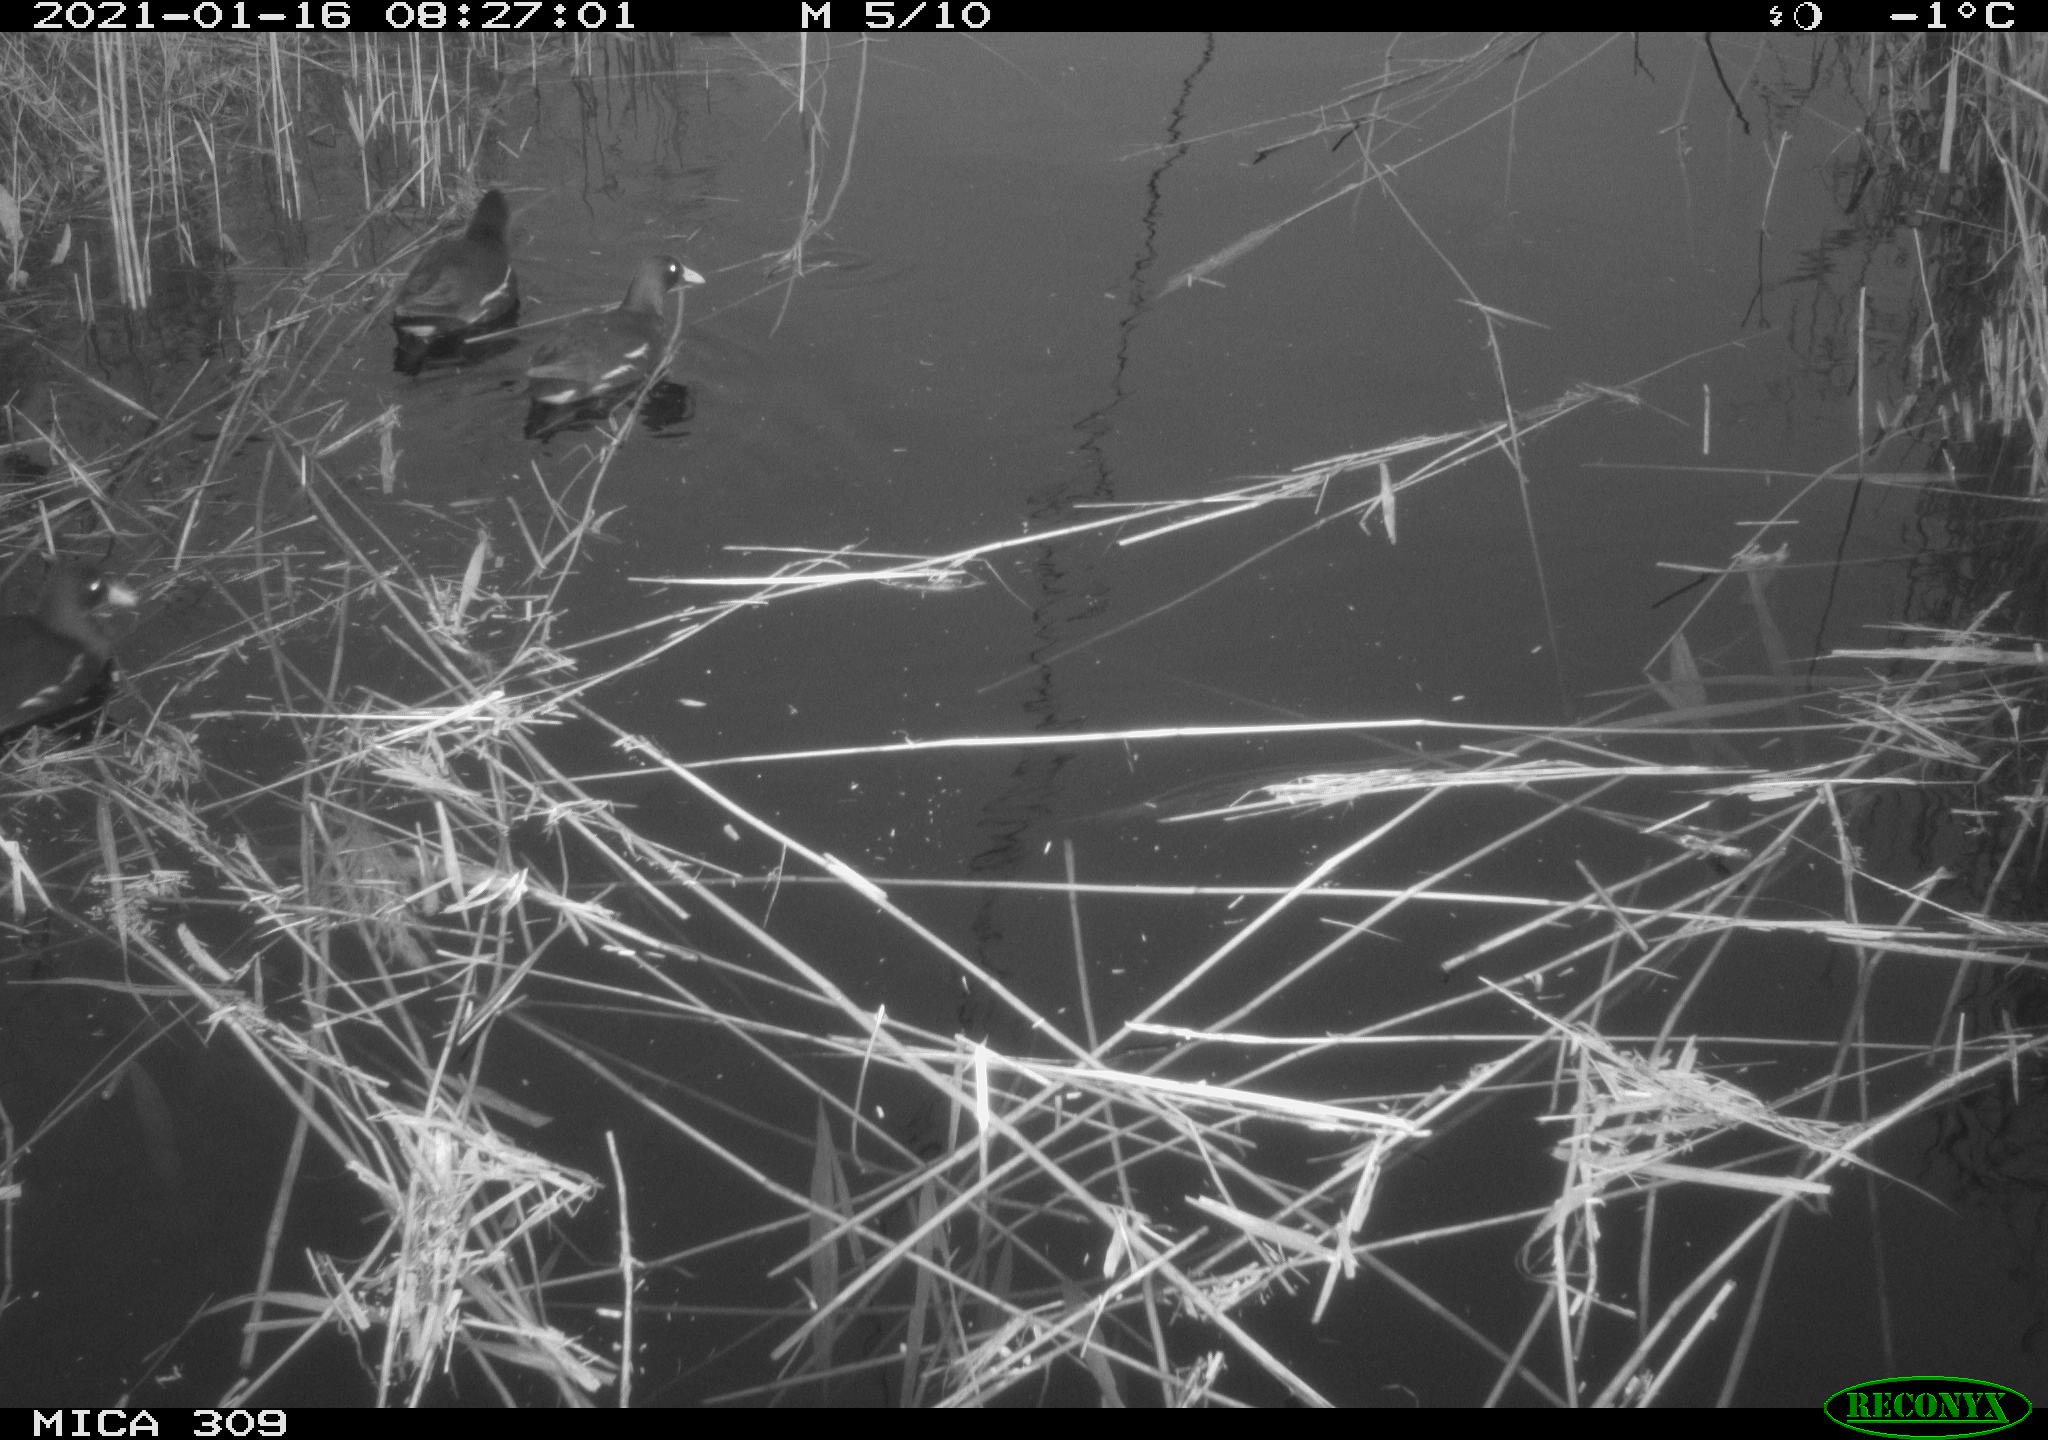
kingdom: Animalia
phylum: Chordata
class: Aves
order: Gruiformes
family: Rallidae
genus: Gallinula
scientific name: Gallinula chloropus
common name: Common moorhen
